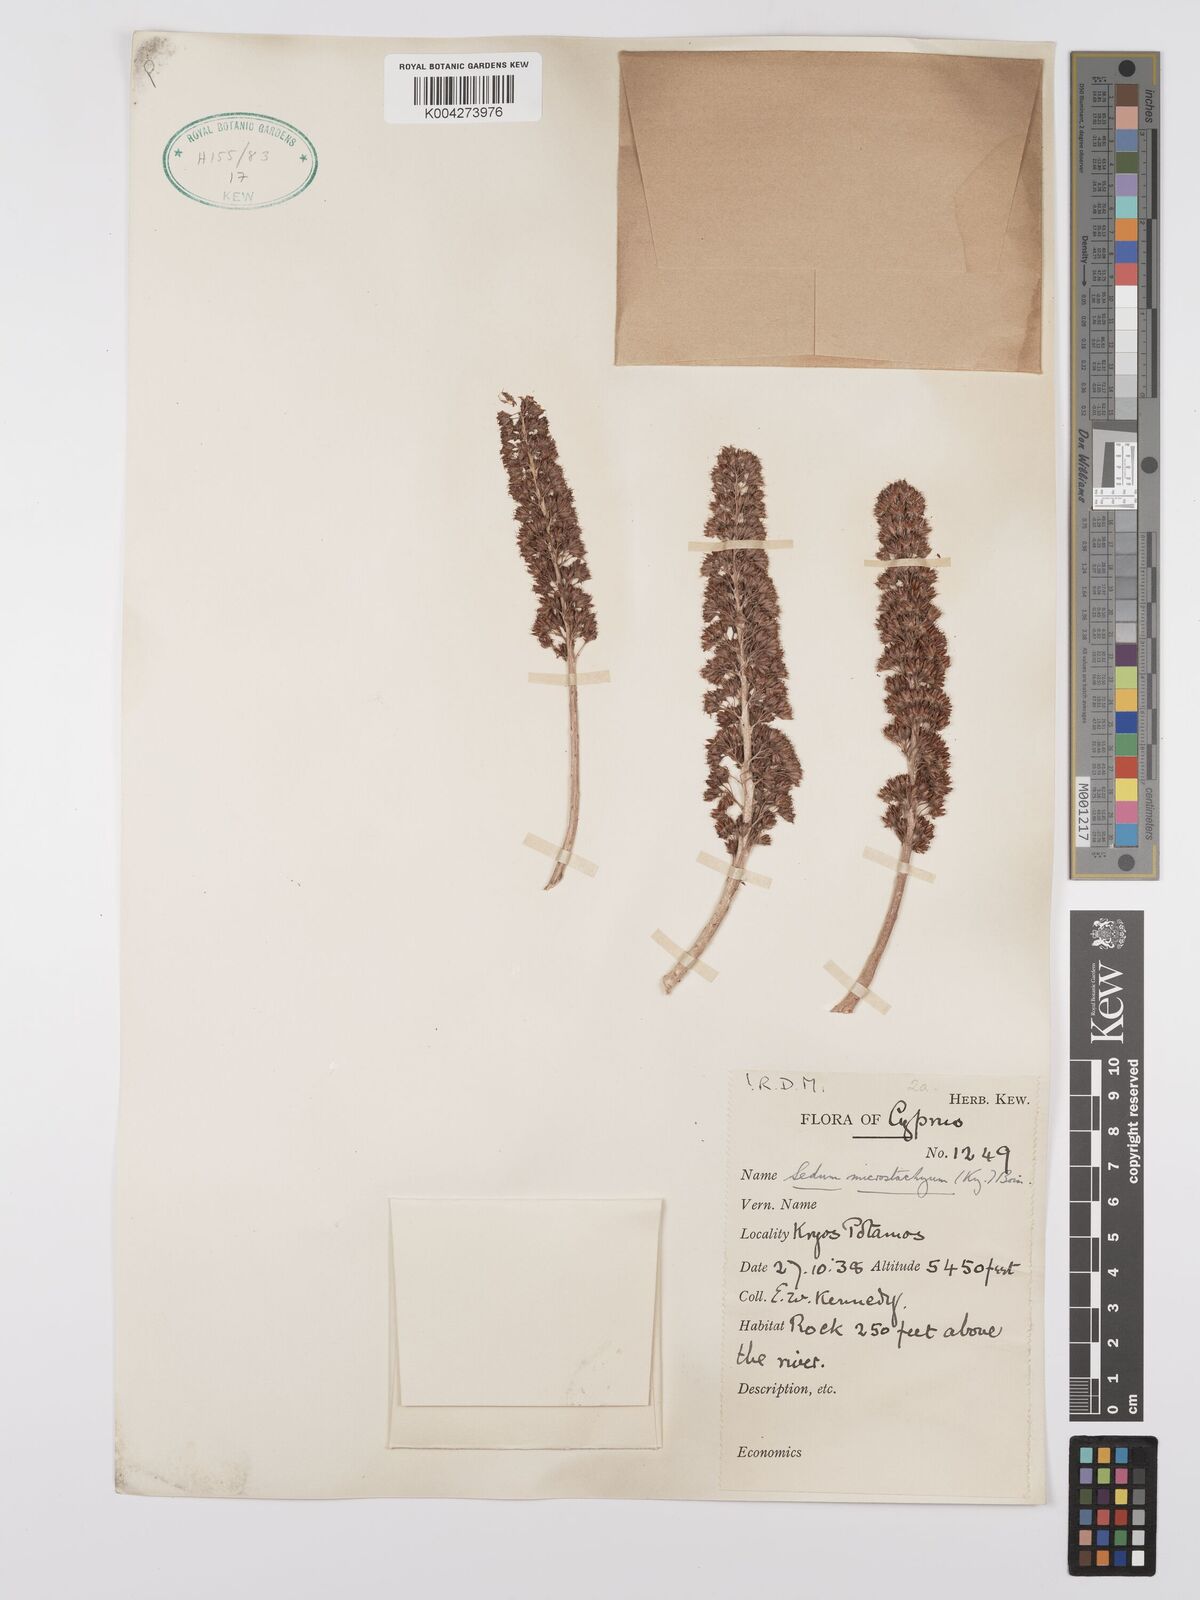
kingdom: Plantae
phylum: Tracheophyta
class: Magnoliopsida
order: Saxifragales
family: Crassulaceae
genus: Sedum
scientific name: Sedum microstachyum
